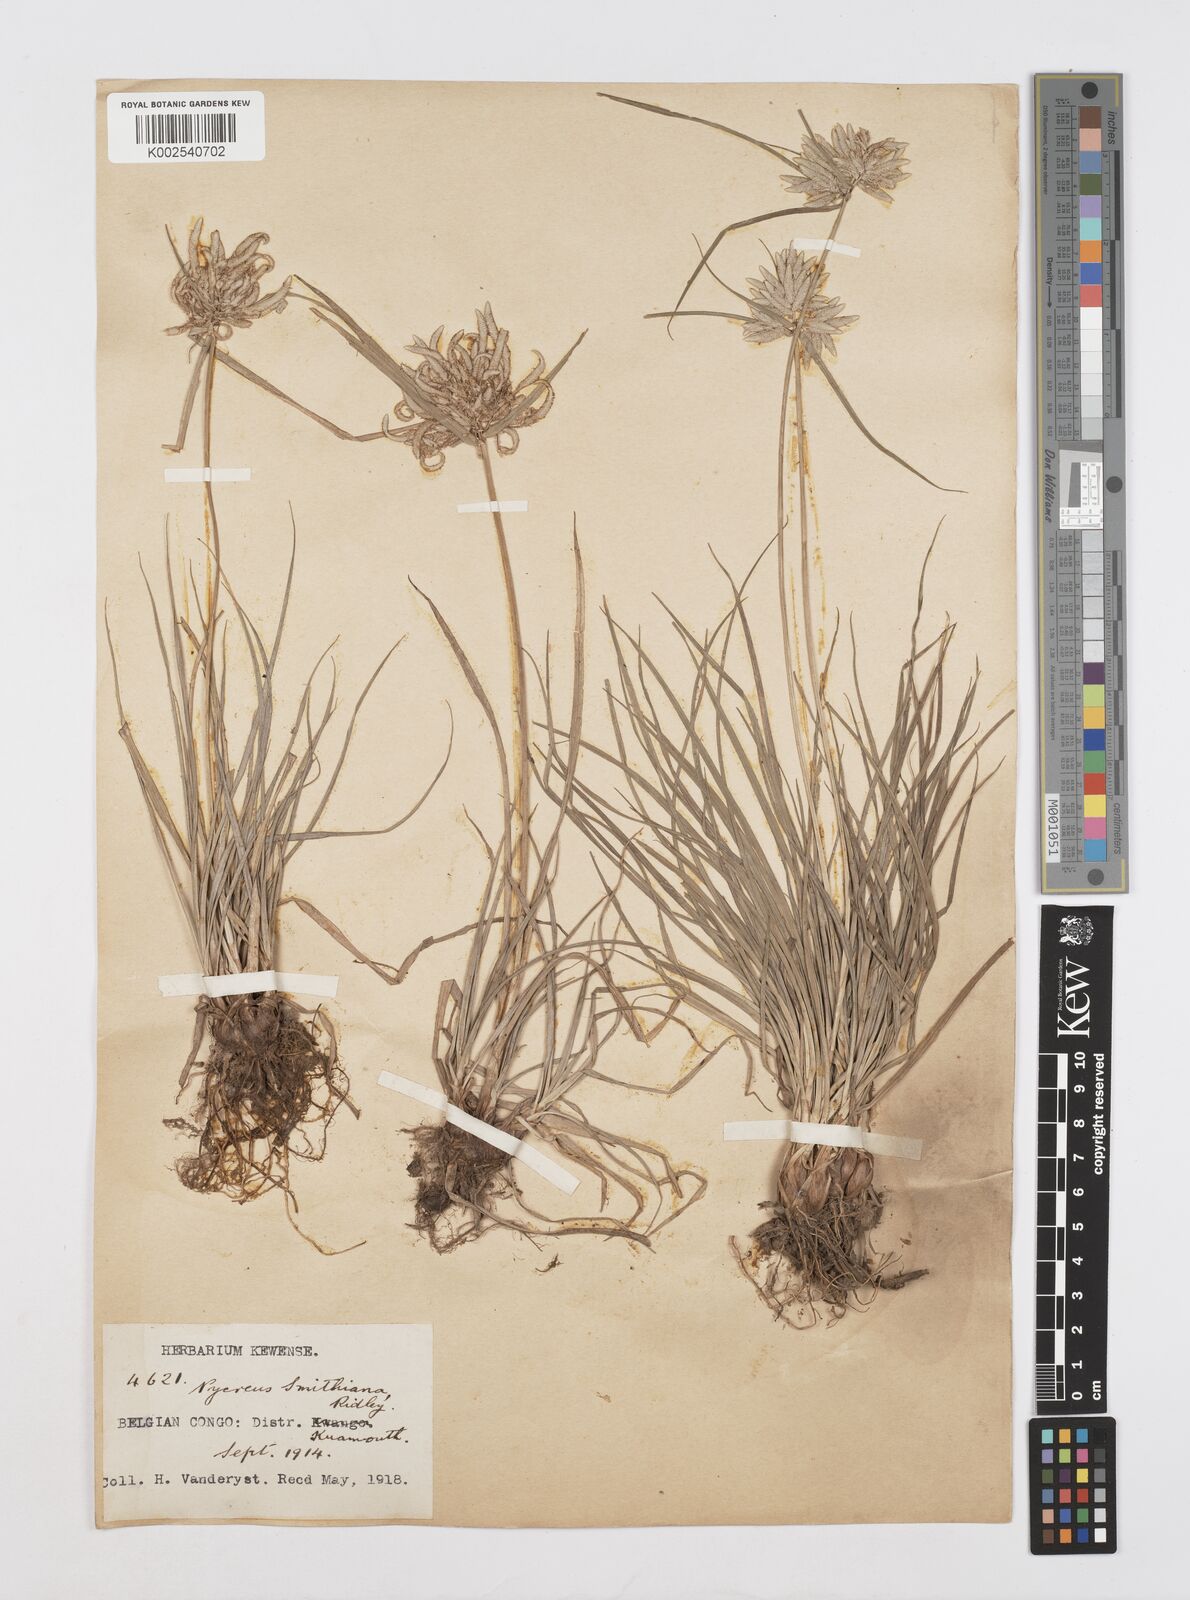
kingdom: Plantae
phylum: Tracheophyta
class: Liliopsida
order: Poales
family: Cyperaceae
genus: Cyperus
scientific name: Cyperus smithianus
